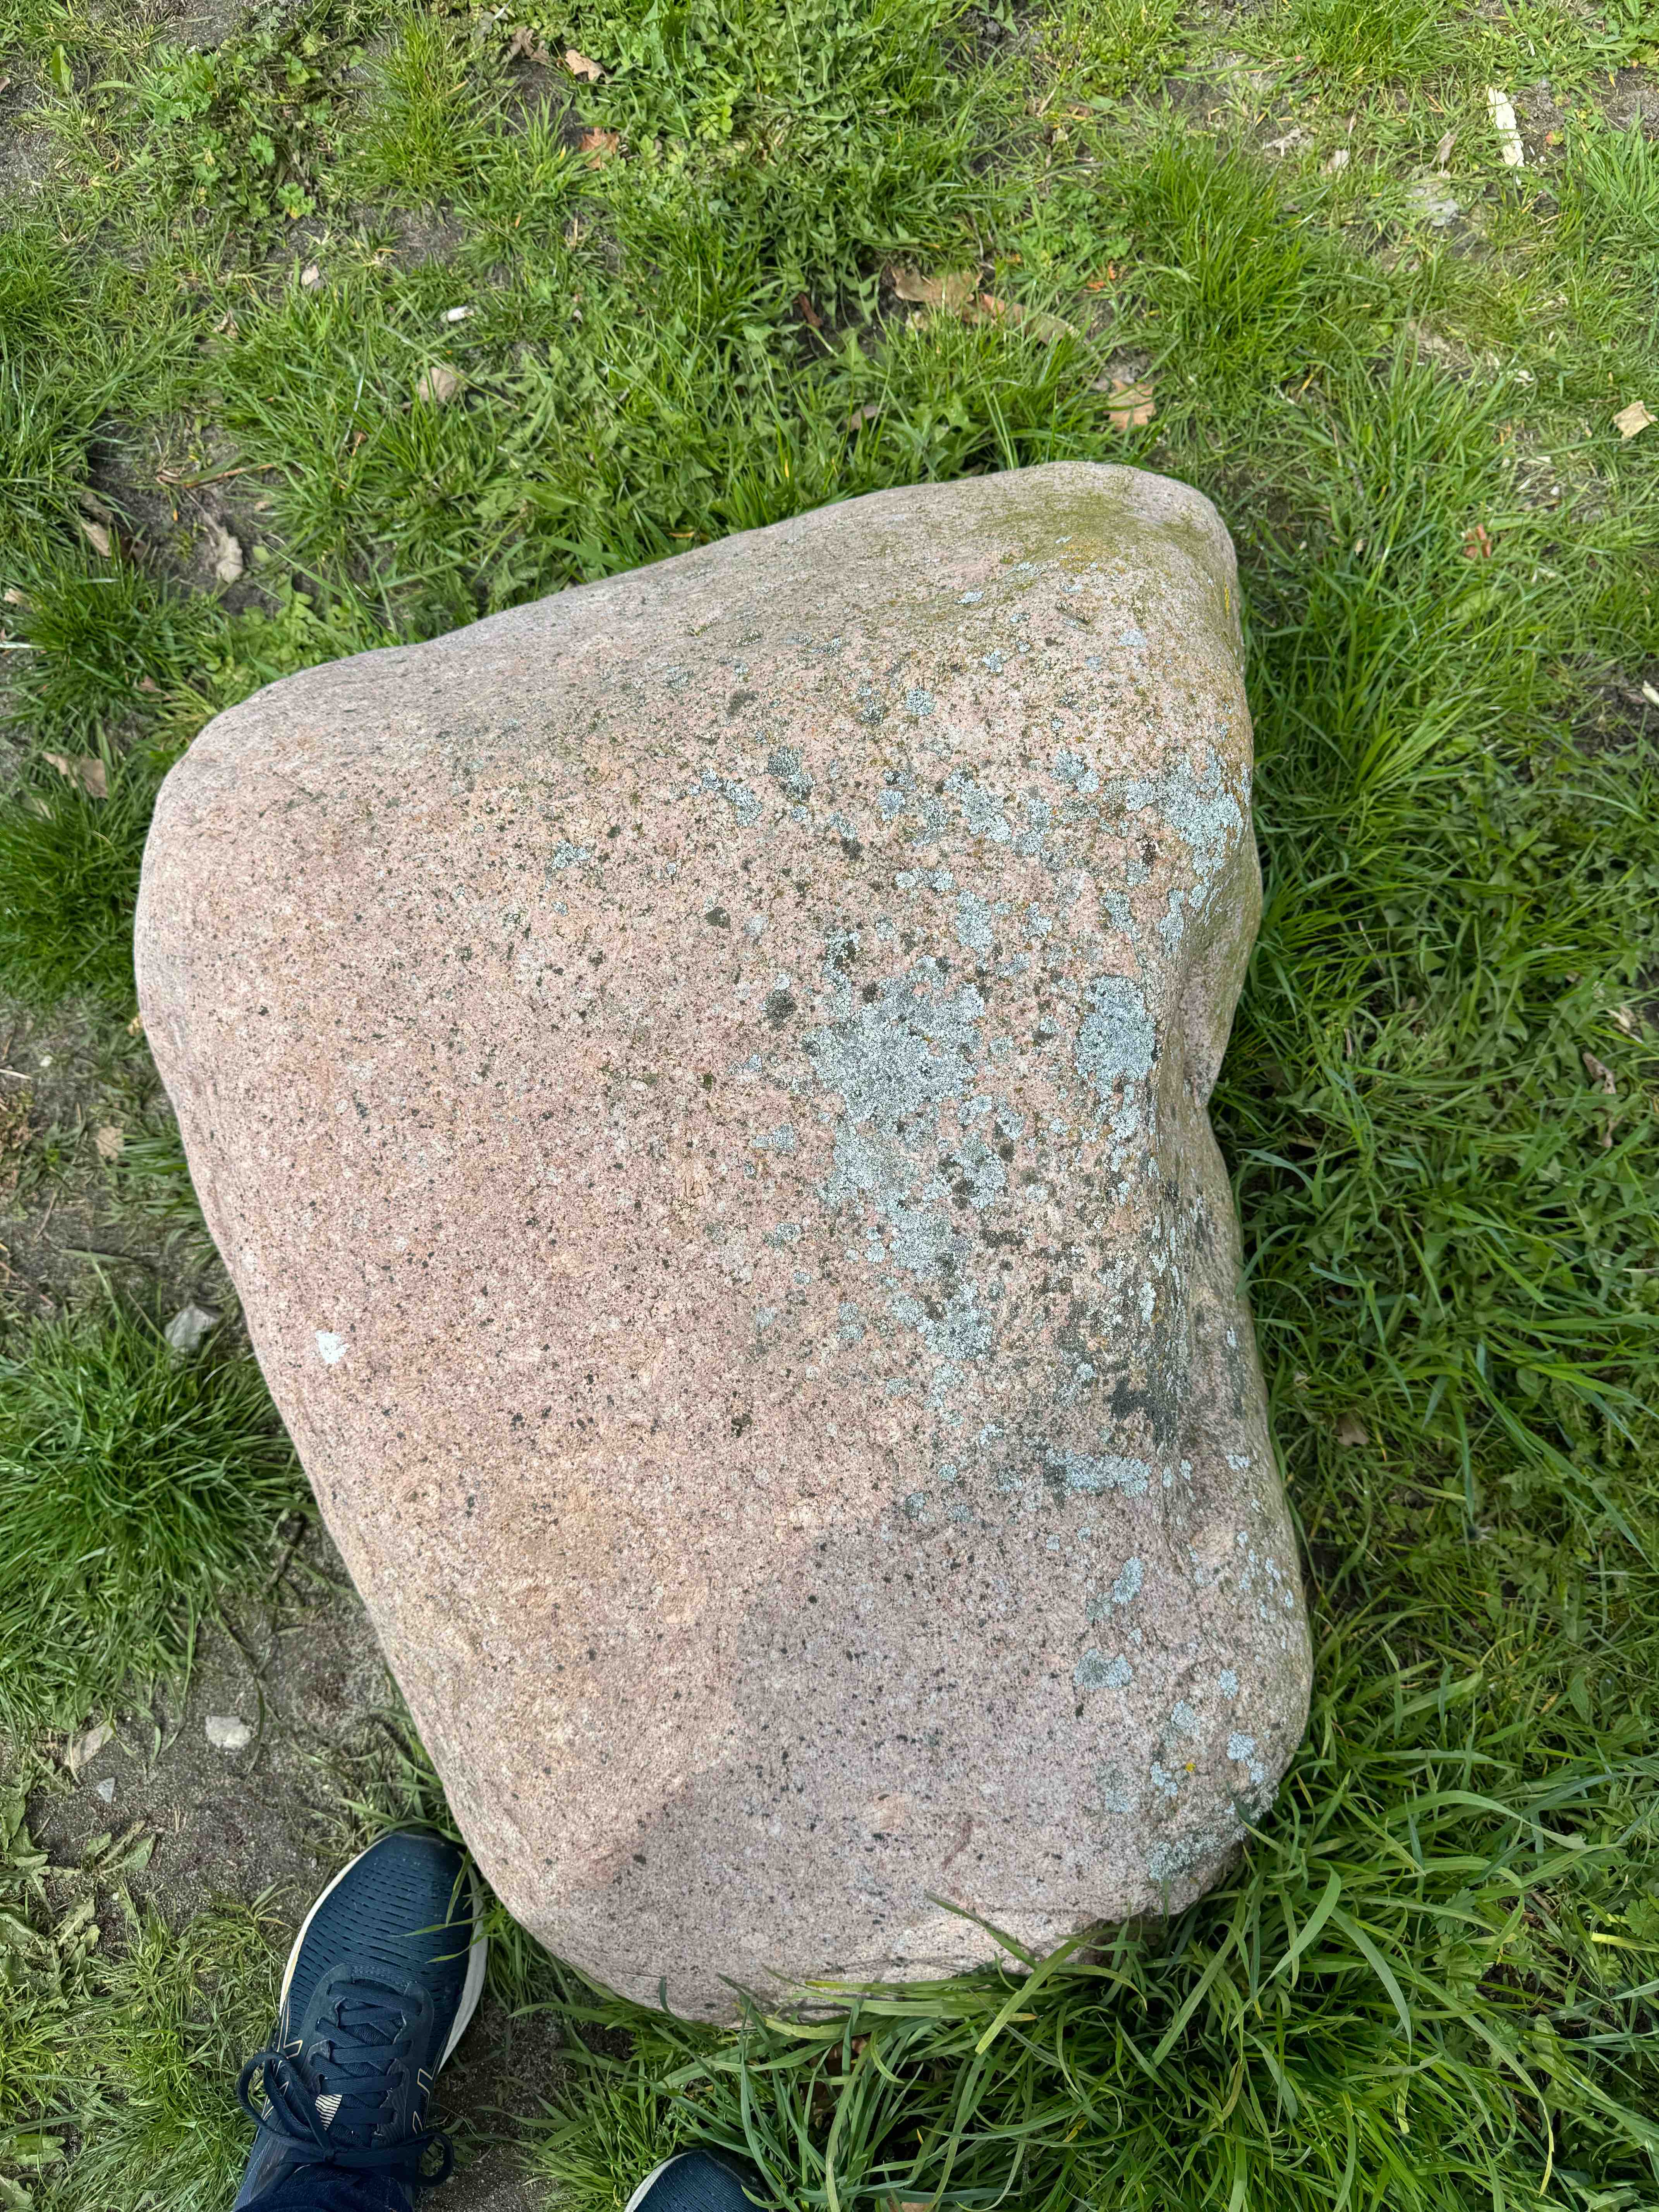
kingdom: Fungi
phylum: Ascomycota
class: Lecanoromycetes
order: Caliciales
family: Physciaceae
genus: Physcia
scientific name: Physcia caesia
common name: blågrå rosetlav
